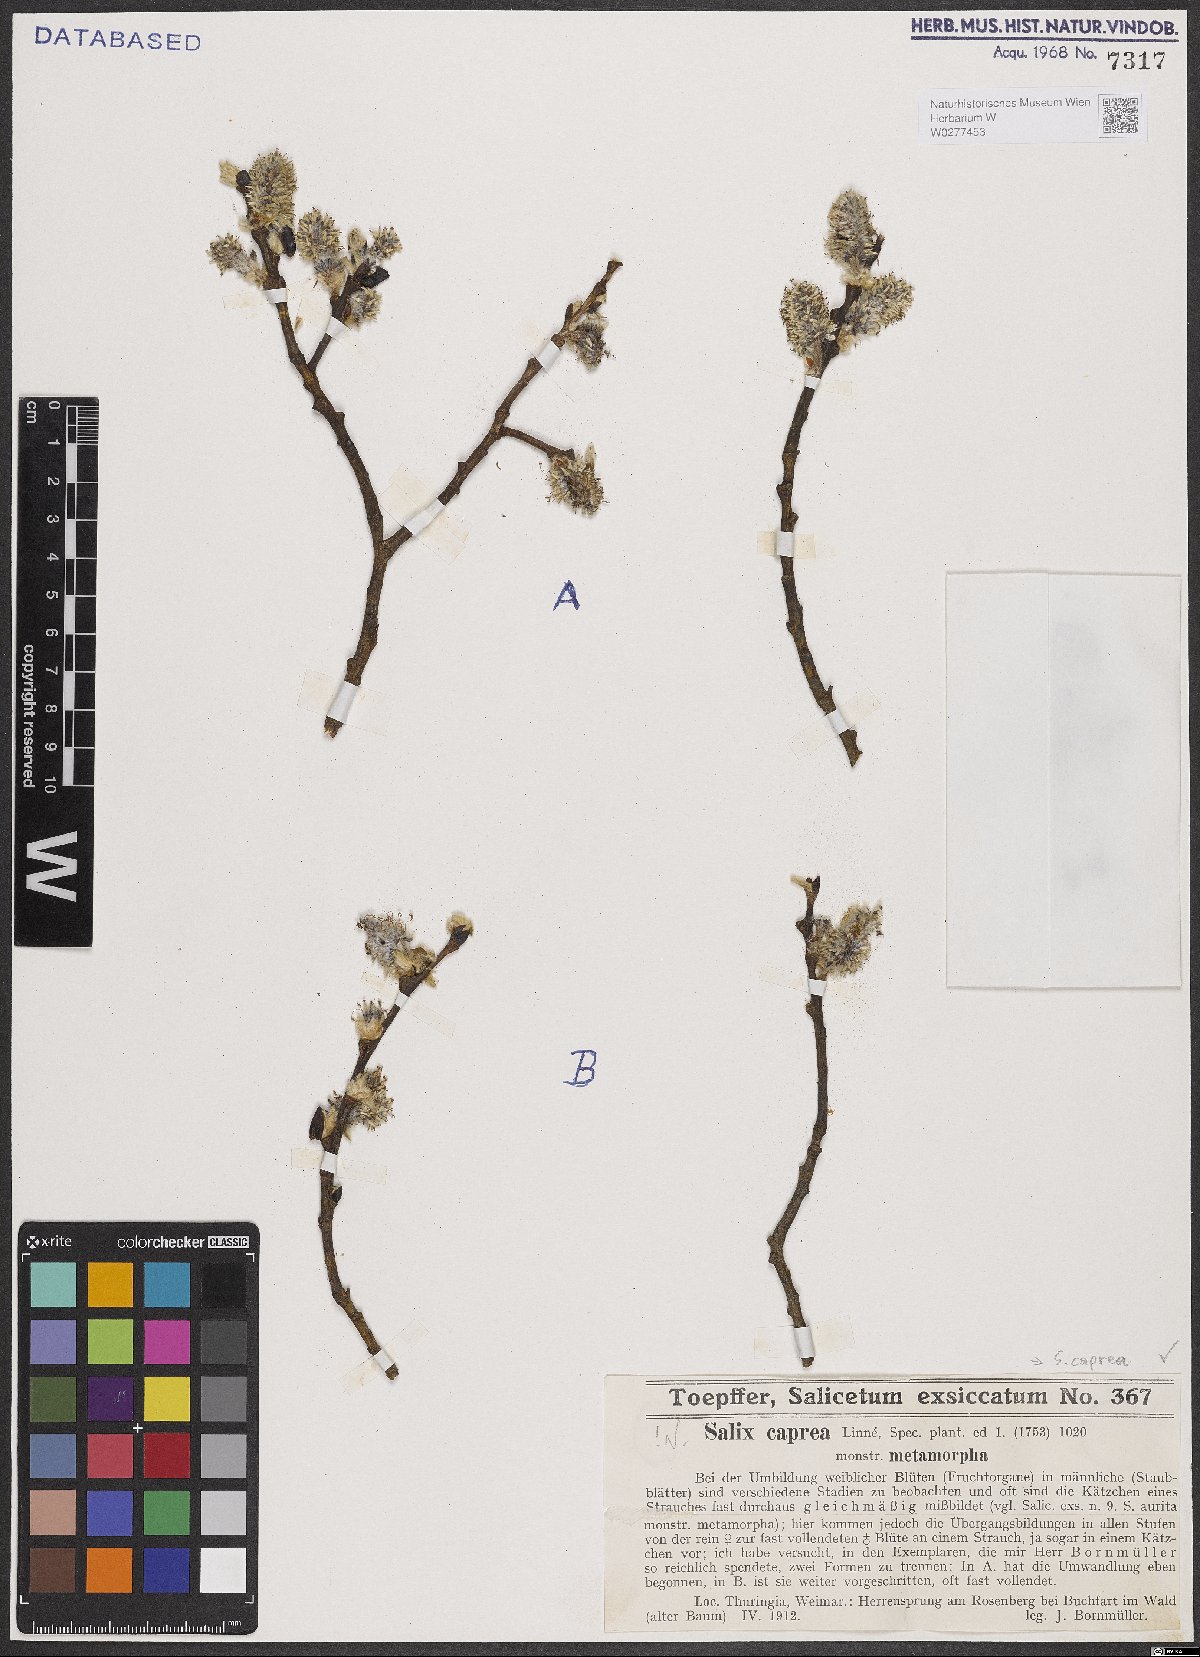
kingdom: Plantae
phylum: Tracheophyta
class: Magnoliopsida
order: Malpighiales
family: Salicaceae
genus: Salix
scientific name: Salix caprea
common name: Goat willow
